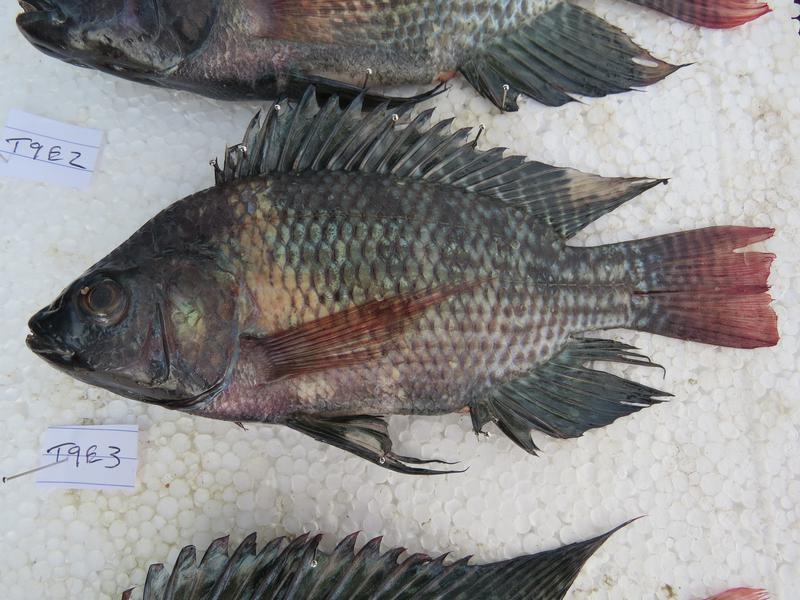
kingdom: Animalia
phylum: Chordata
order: Perciformes
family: Cichlidae
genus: Oreochromis
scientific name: Oreochromis niloticus
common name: Nile tilapia
